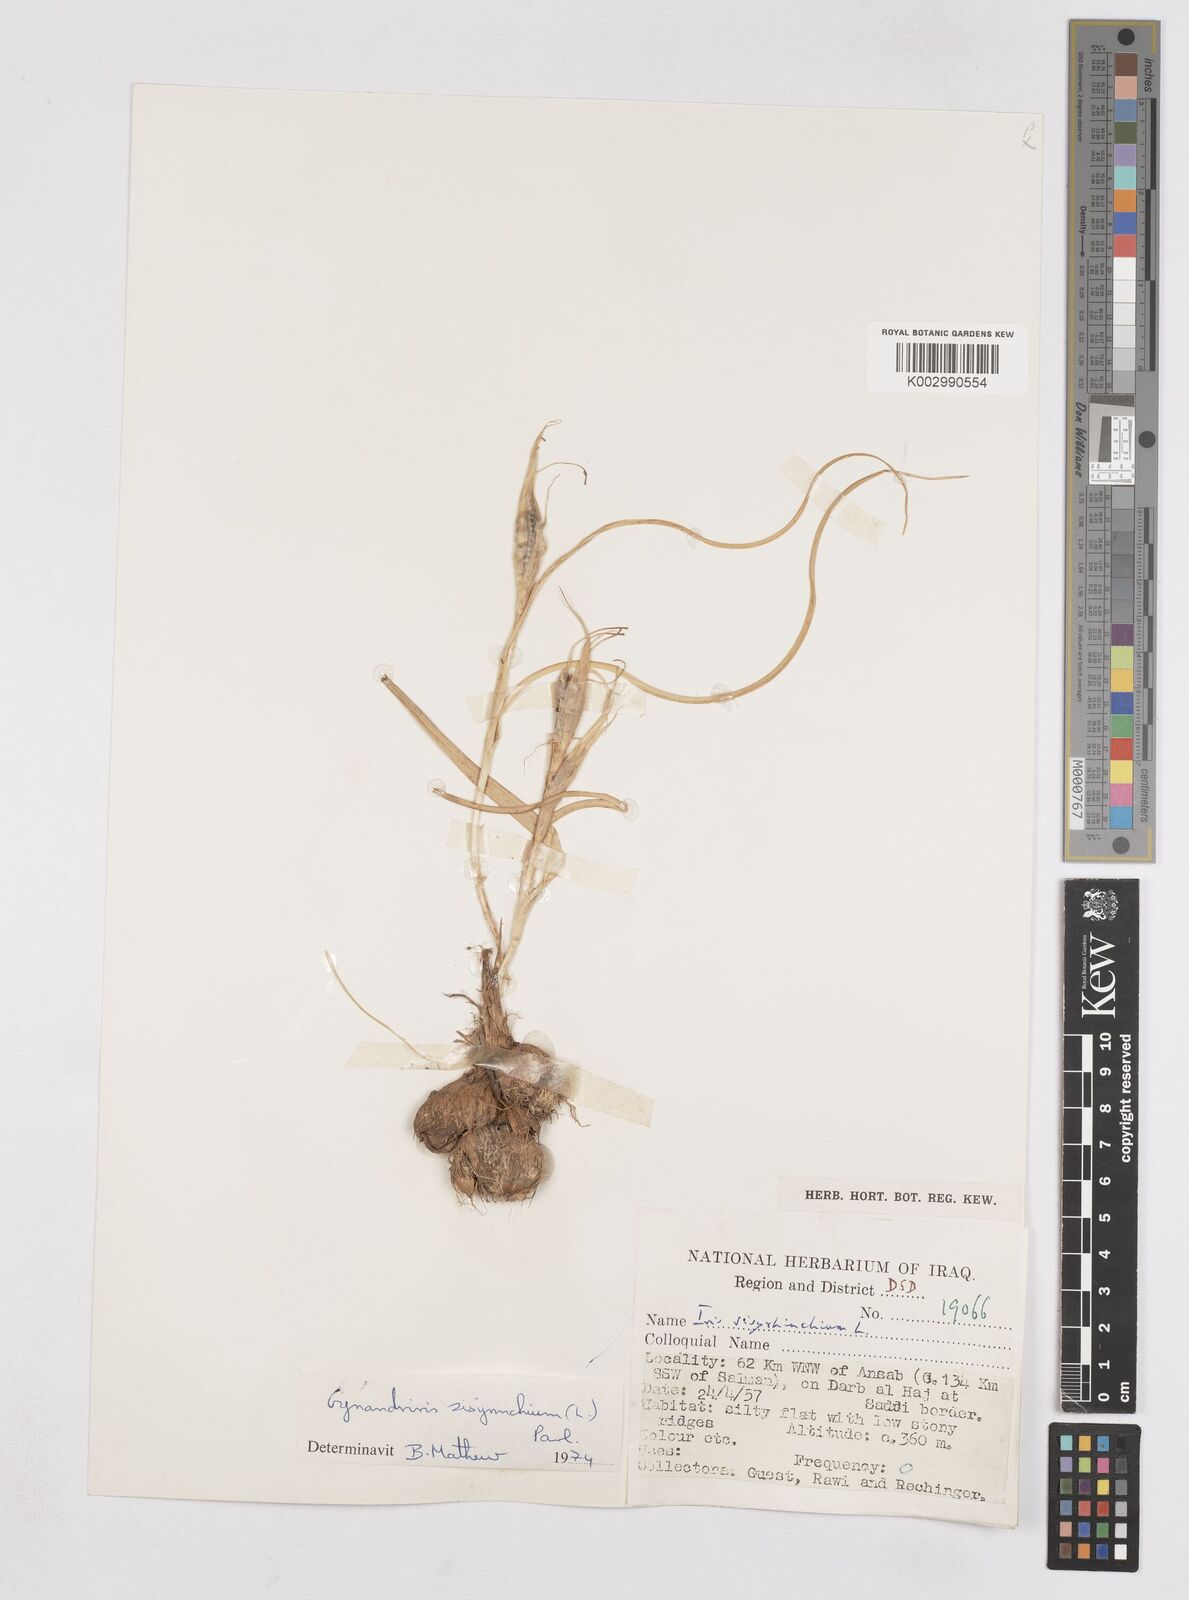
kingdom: Plantae
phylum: Tracheophyta
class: Liliopsida
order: Asparagales
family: Iridaceae
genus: Moraea
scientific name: Moraea sisyrinchium
